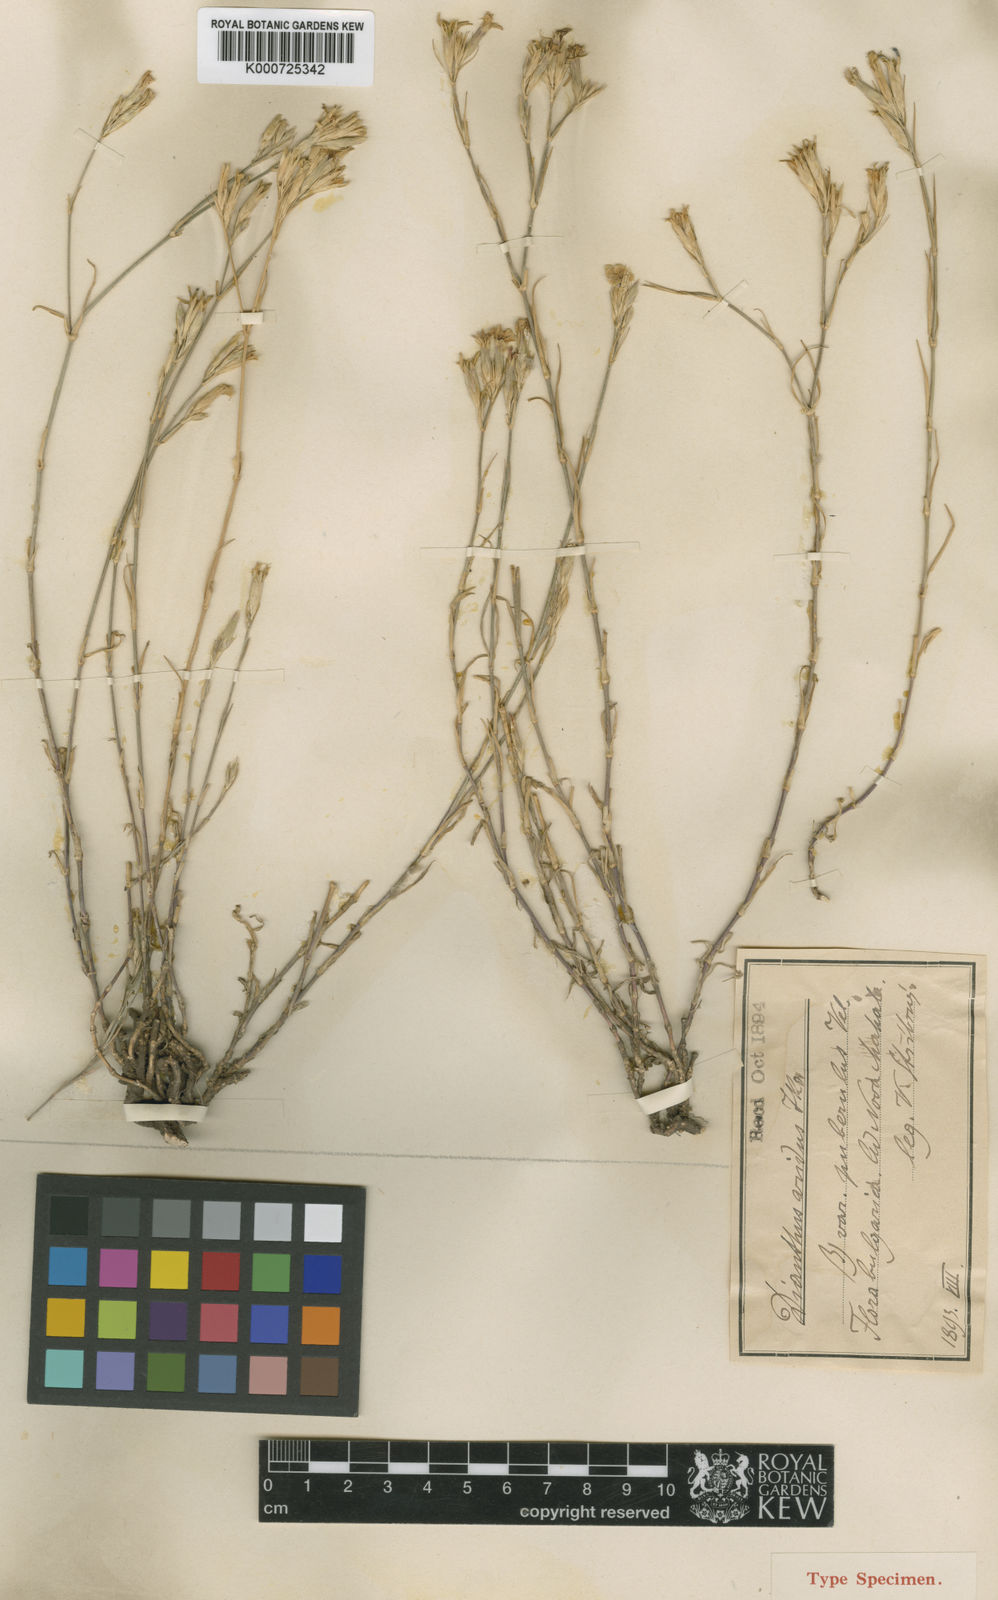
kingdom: Plantae
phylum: Tracheophyta
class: Magnoliopsida
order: Caryophyllales
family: Caryophyllaceae
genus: Dianthus
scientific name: Dianthus pallens
